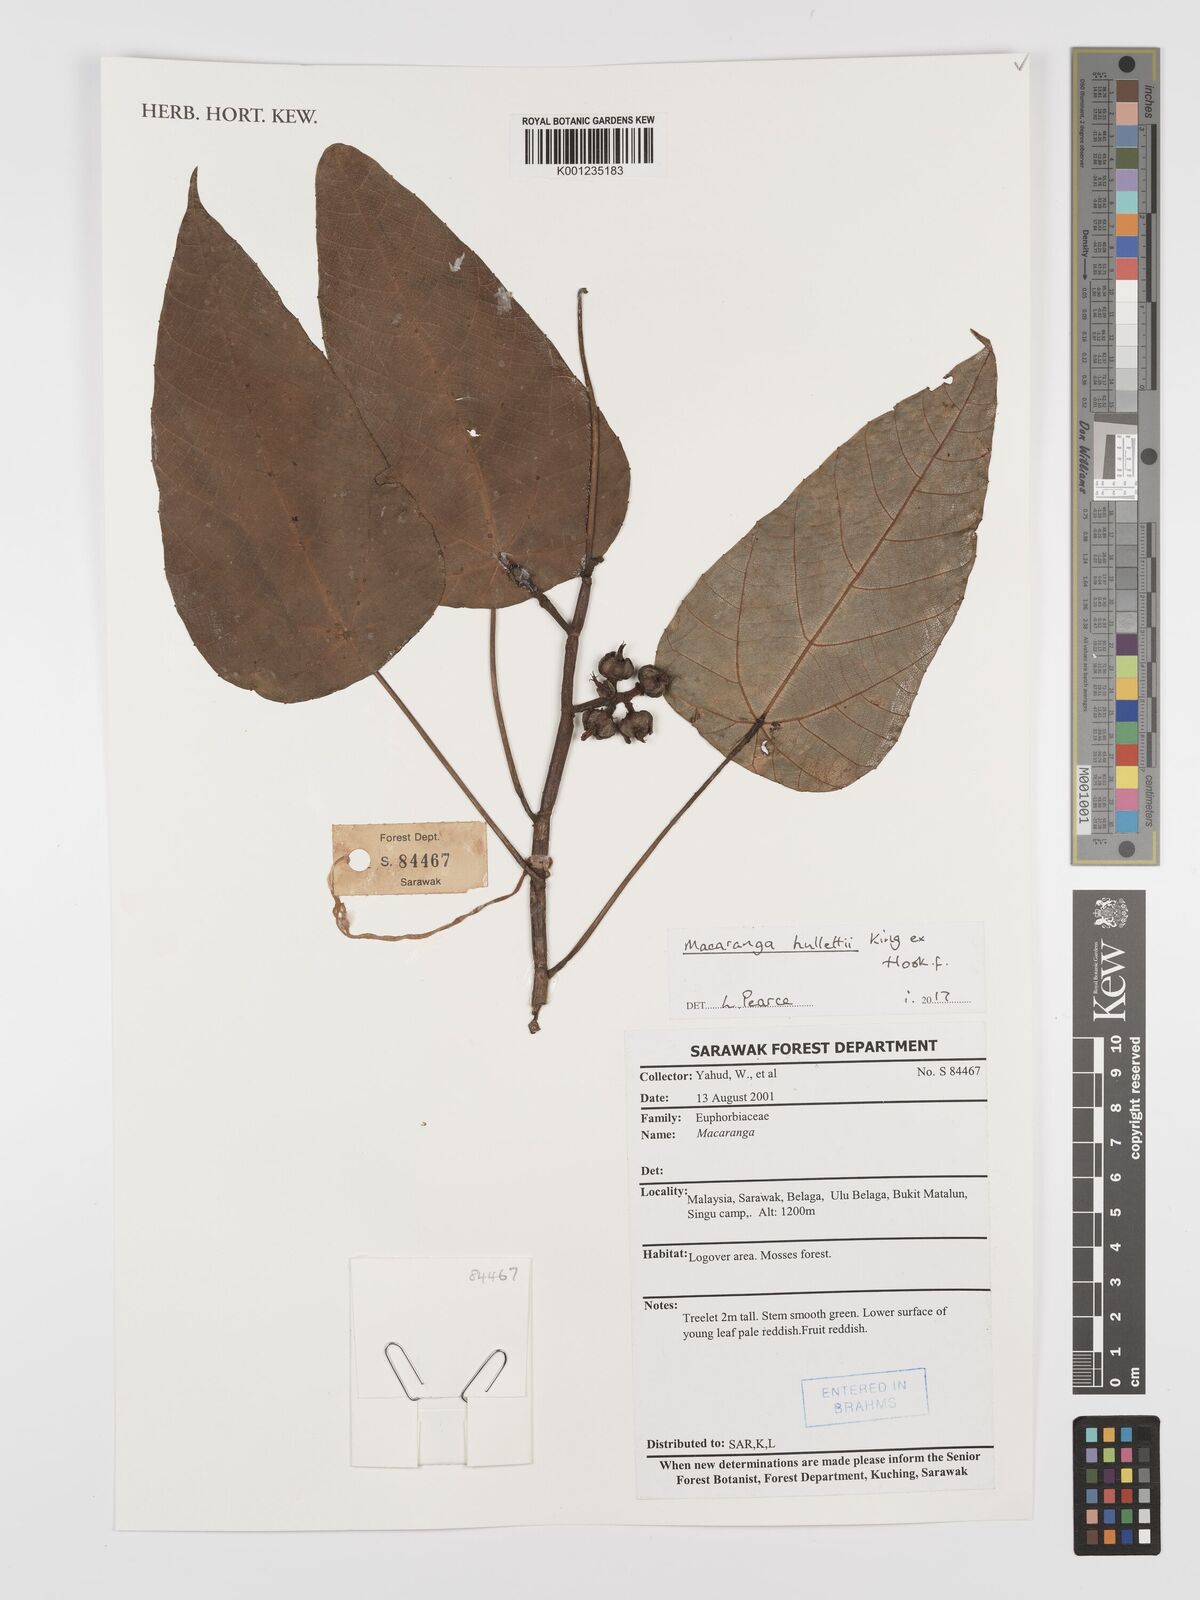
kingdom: Plantae
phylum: Tracheophyta
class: Magnoliopsida
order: Malpighiales
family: Euphorbiaceae
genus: Macaranga
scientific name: Macaranga hullettii
